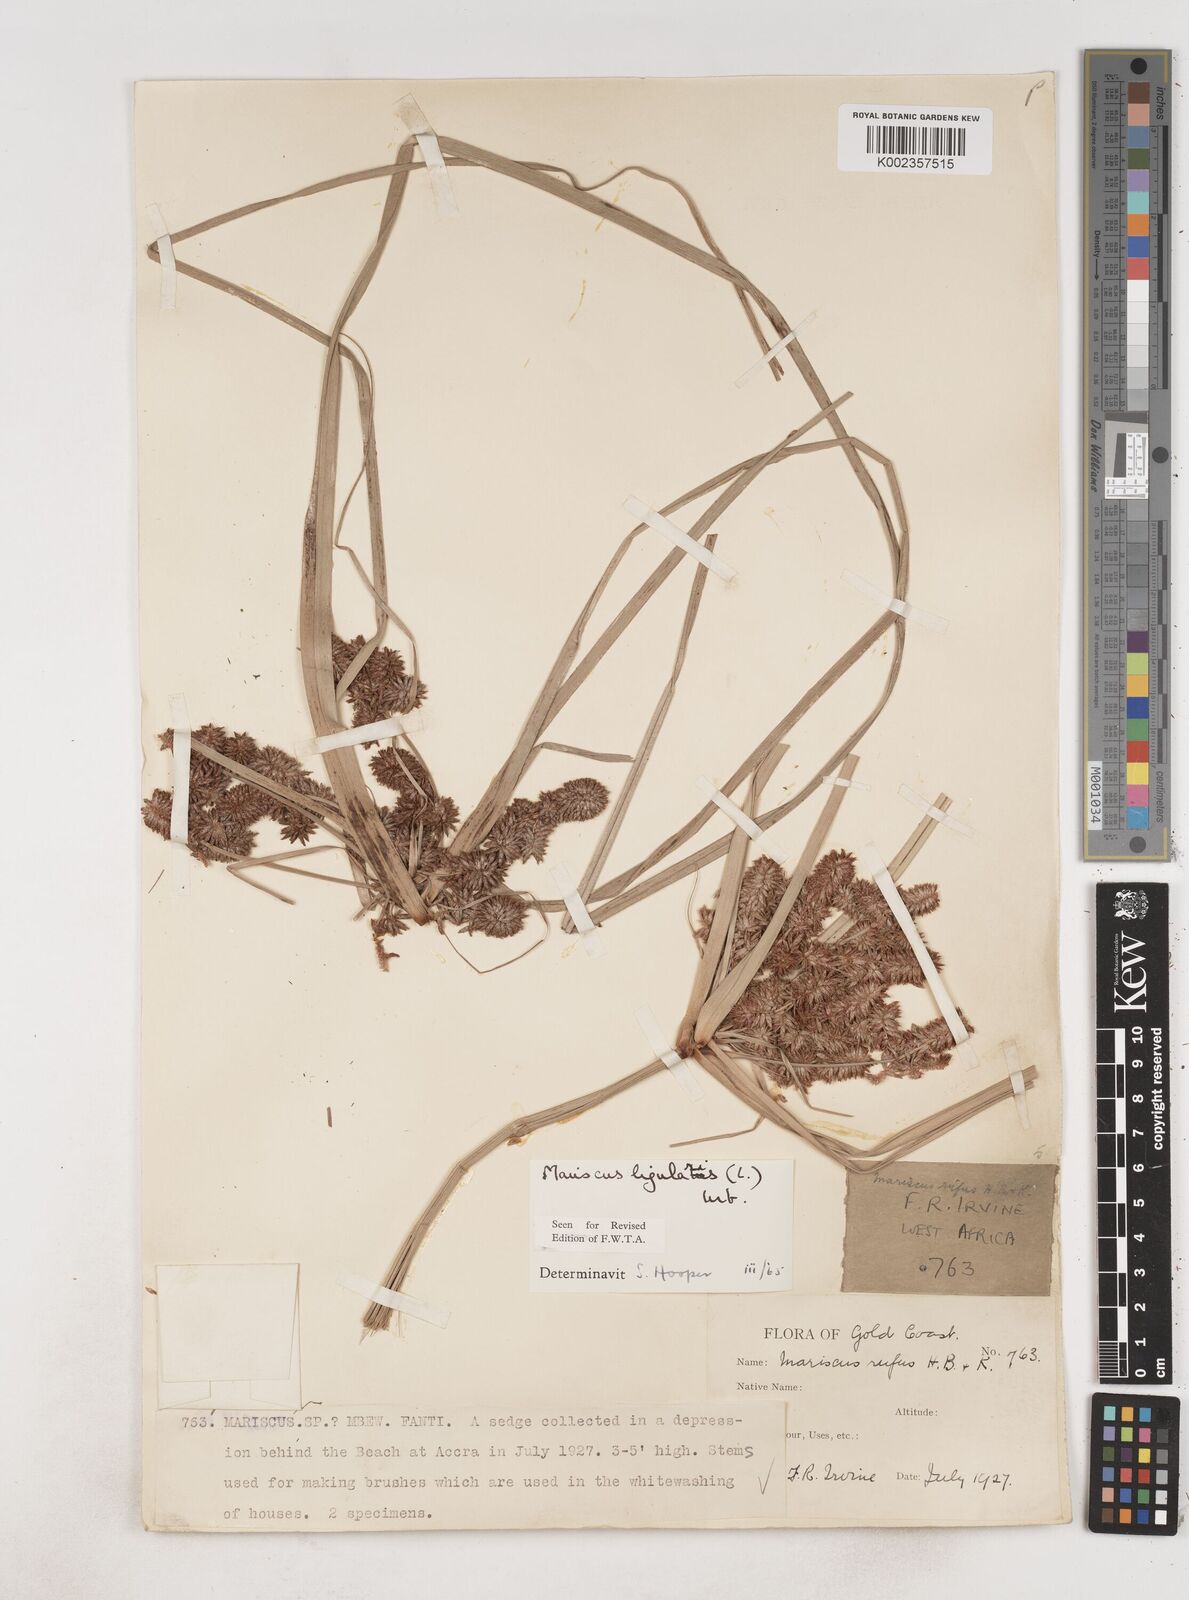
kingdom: Plantae
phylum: Tracheophyta
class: Liliopsida
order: Poales
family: Cyperaceae
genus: Cyperus
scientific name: Cyperus ligularis
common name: Swamp flat sedge
